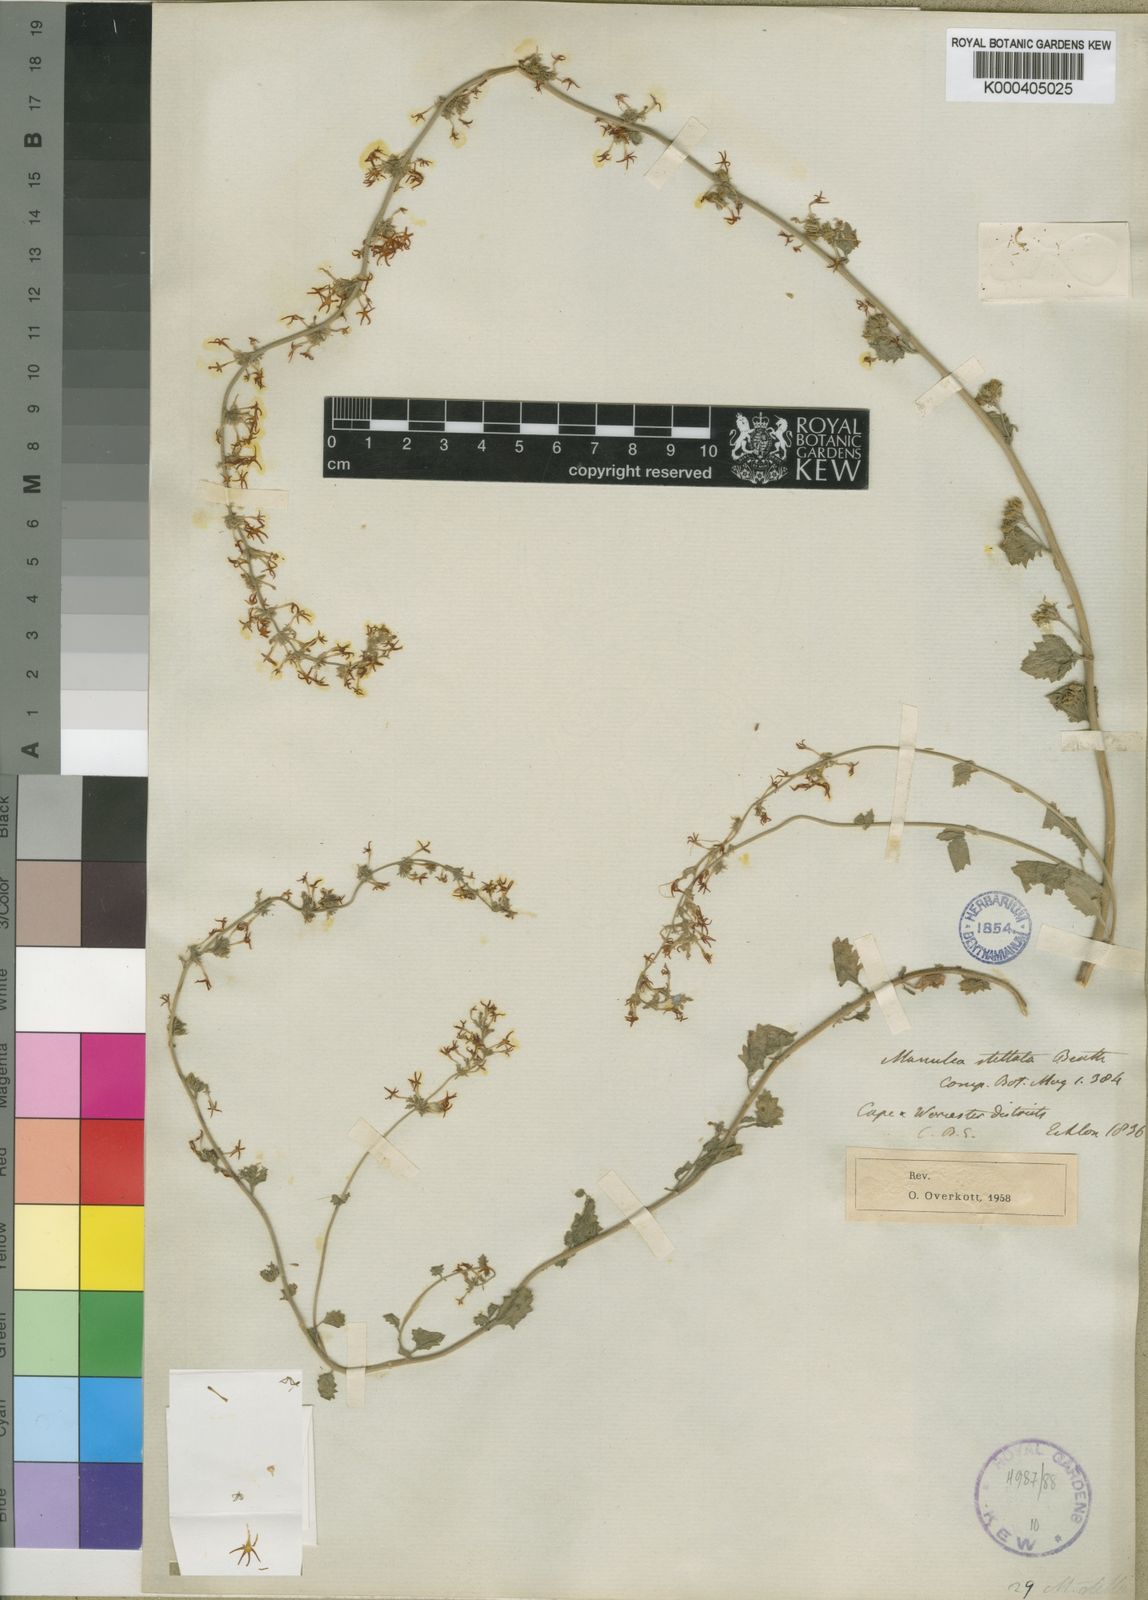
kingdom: Plantae
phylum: Tracheophyta
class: Magnoliopsida
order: Lamiales
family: Scrophulariaceae
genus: Manulea
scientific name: Manulea stellata
